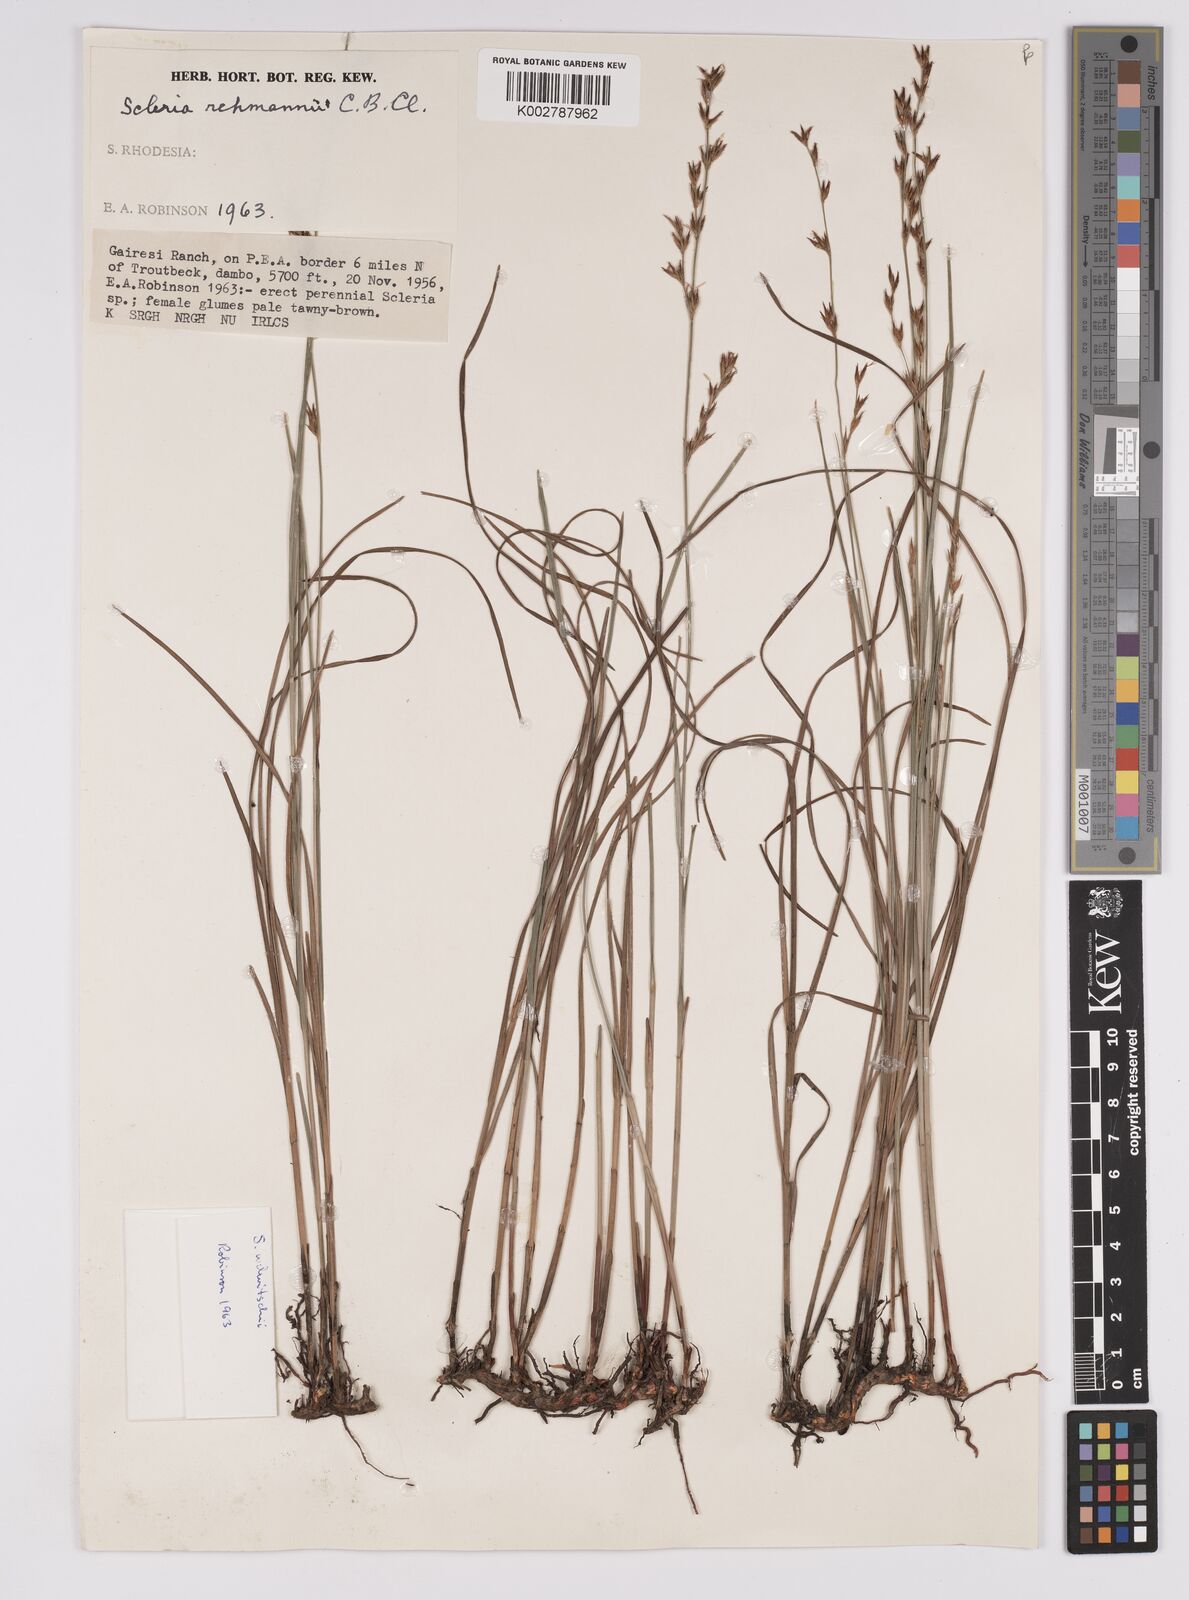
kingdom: Plantae
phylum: Tracheophyta
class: Liliopsida
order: Poales
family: Cyperaceae
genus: Scleria
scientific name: Scleria welwitschii
